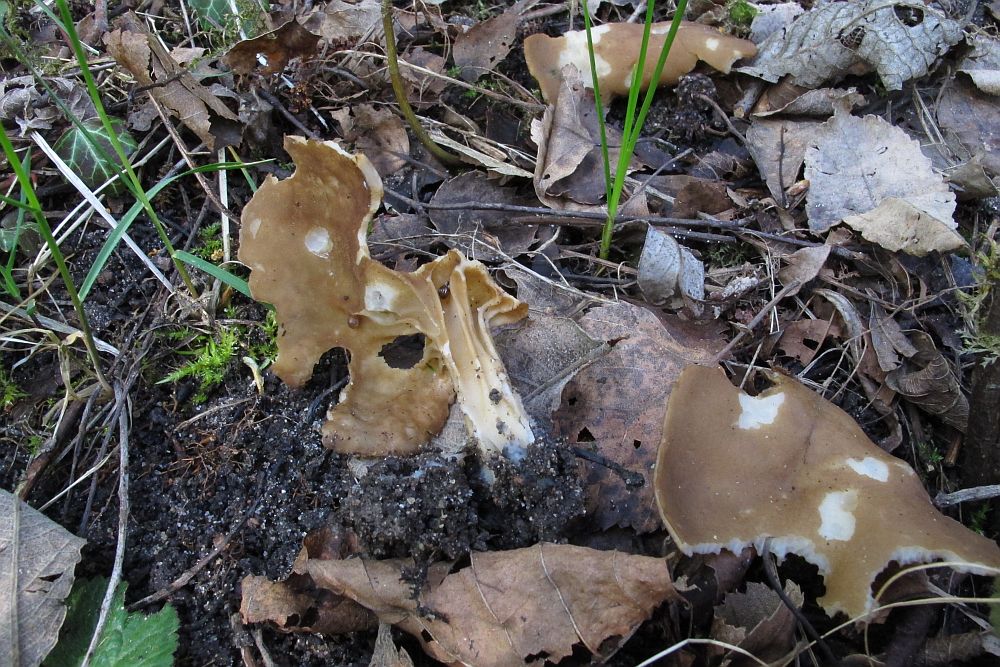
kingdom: Fungi
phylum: Ascomycota
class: Pezizomycetes
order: Pezizales
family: Helvellaceae
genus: Helvella
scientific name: Helvella acetabulum
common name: pokal-foldhat
